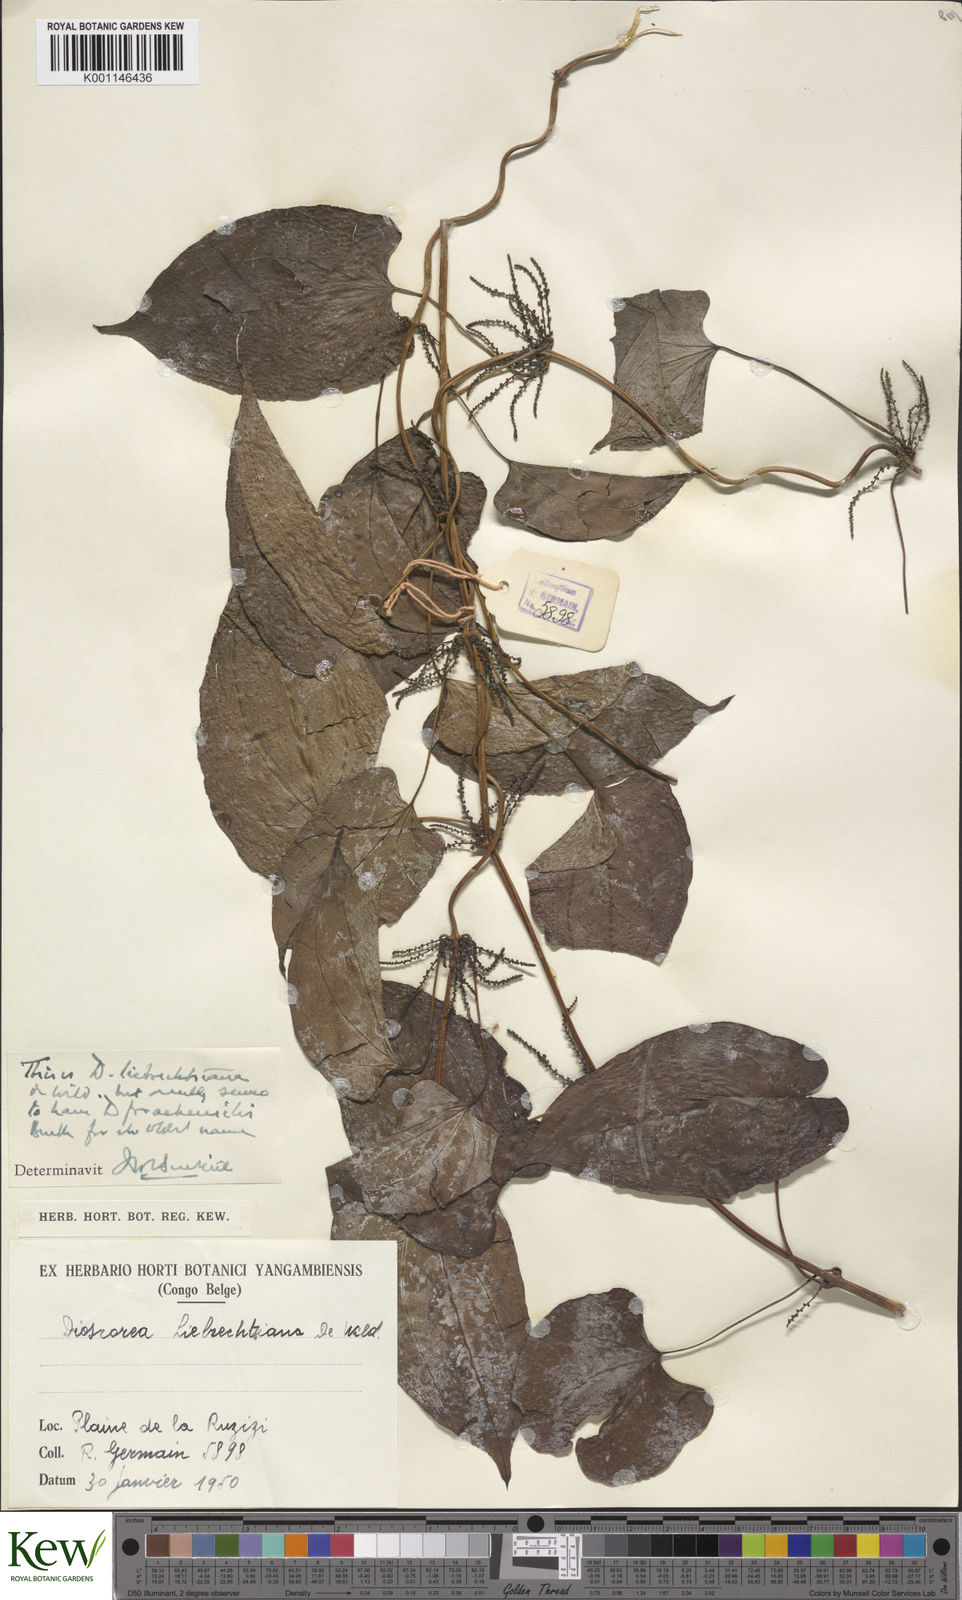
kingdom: Plantae
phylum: Tracheophyta
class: Liliopsida
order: Dioscoreales
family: Dioscoreaceae
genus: Dioscorea
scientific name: Dioscorea praehensilis
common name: Bush yam
